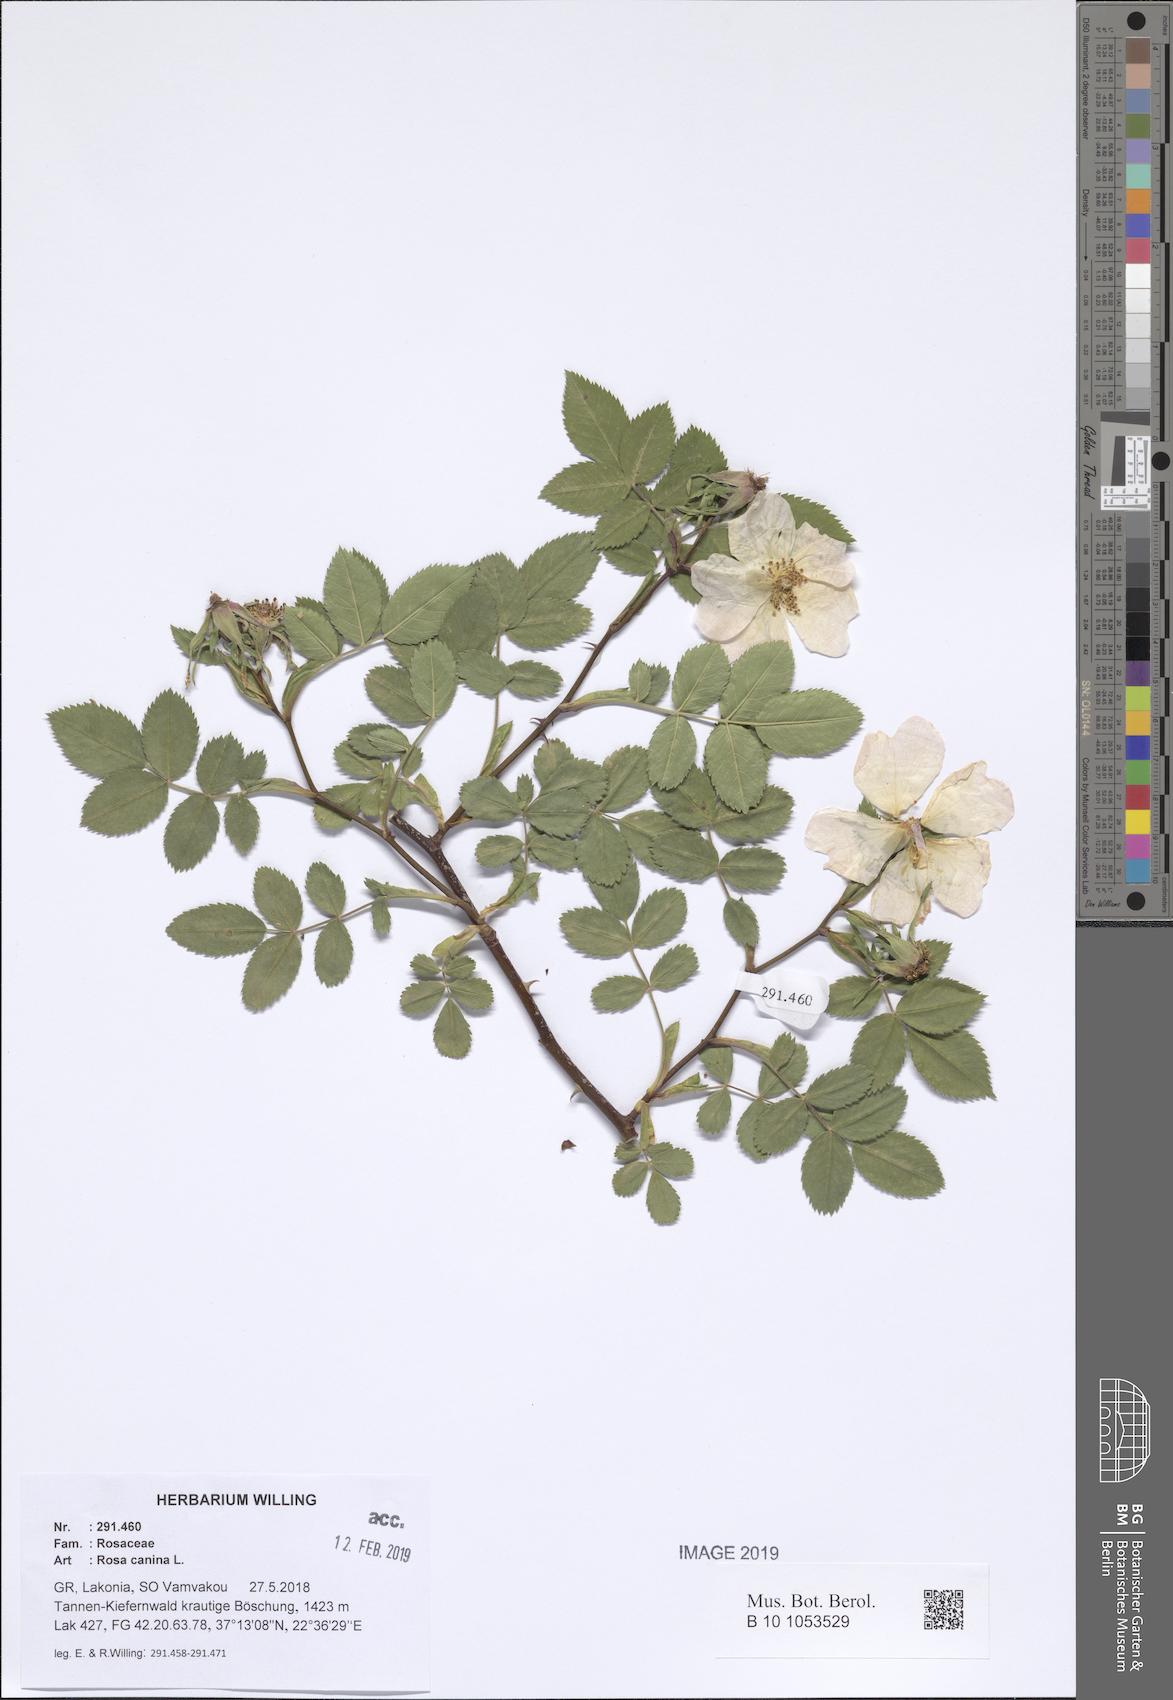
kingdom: Plantae
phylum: Tracheophyta
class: Magnoliopsida
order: Rosales
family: Rosaceae
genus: Rosa
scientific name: Rosa canina
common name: Dog rose
